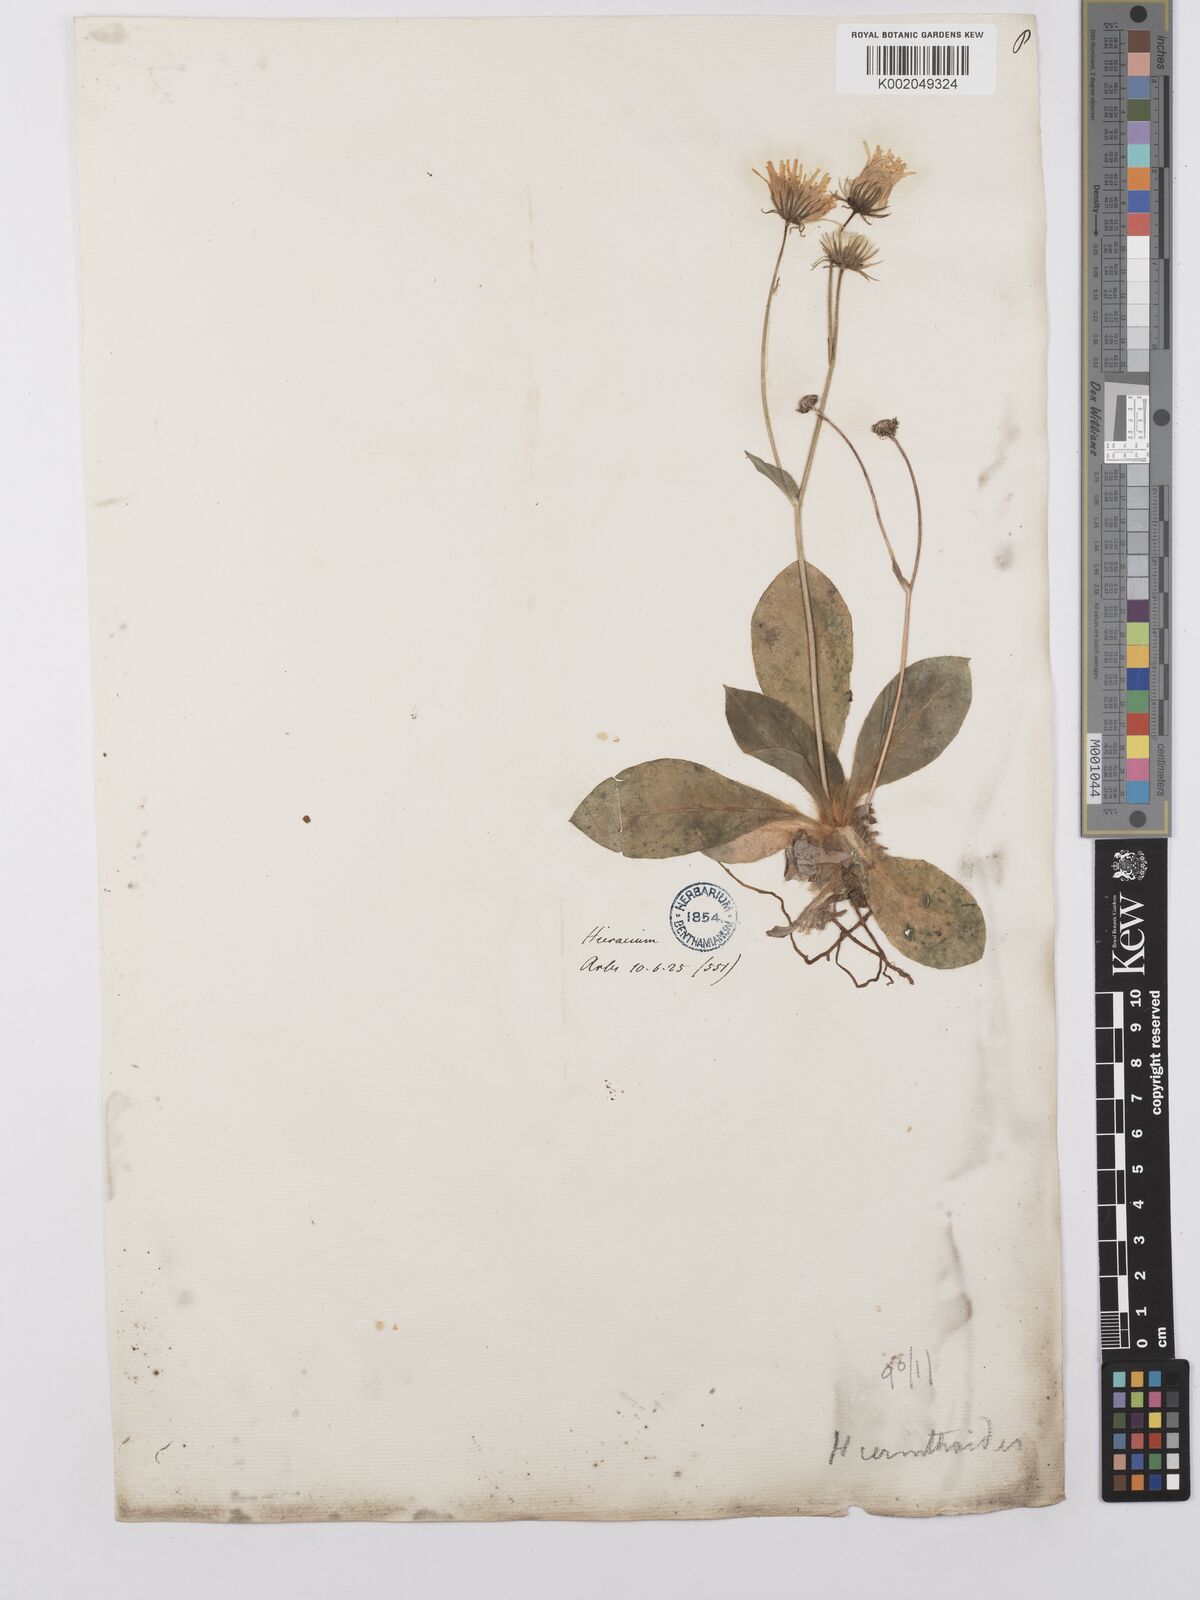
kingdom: Plantae
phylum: Tracheophyta
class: Magnoliopsida
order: Asterales
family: Asteraceae
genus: Hieracium
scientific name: Hieracium cerinthoides
